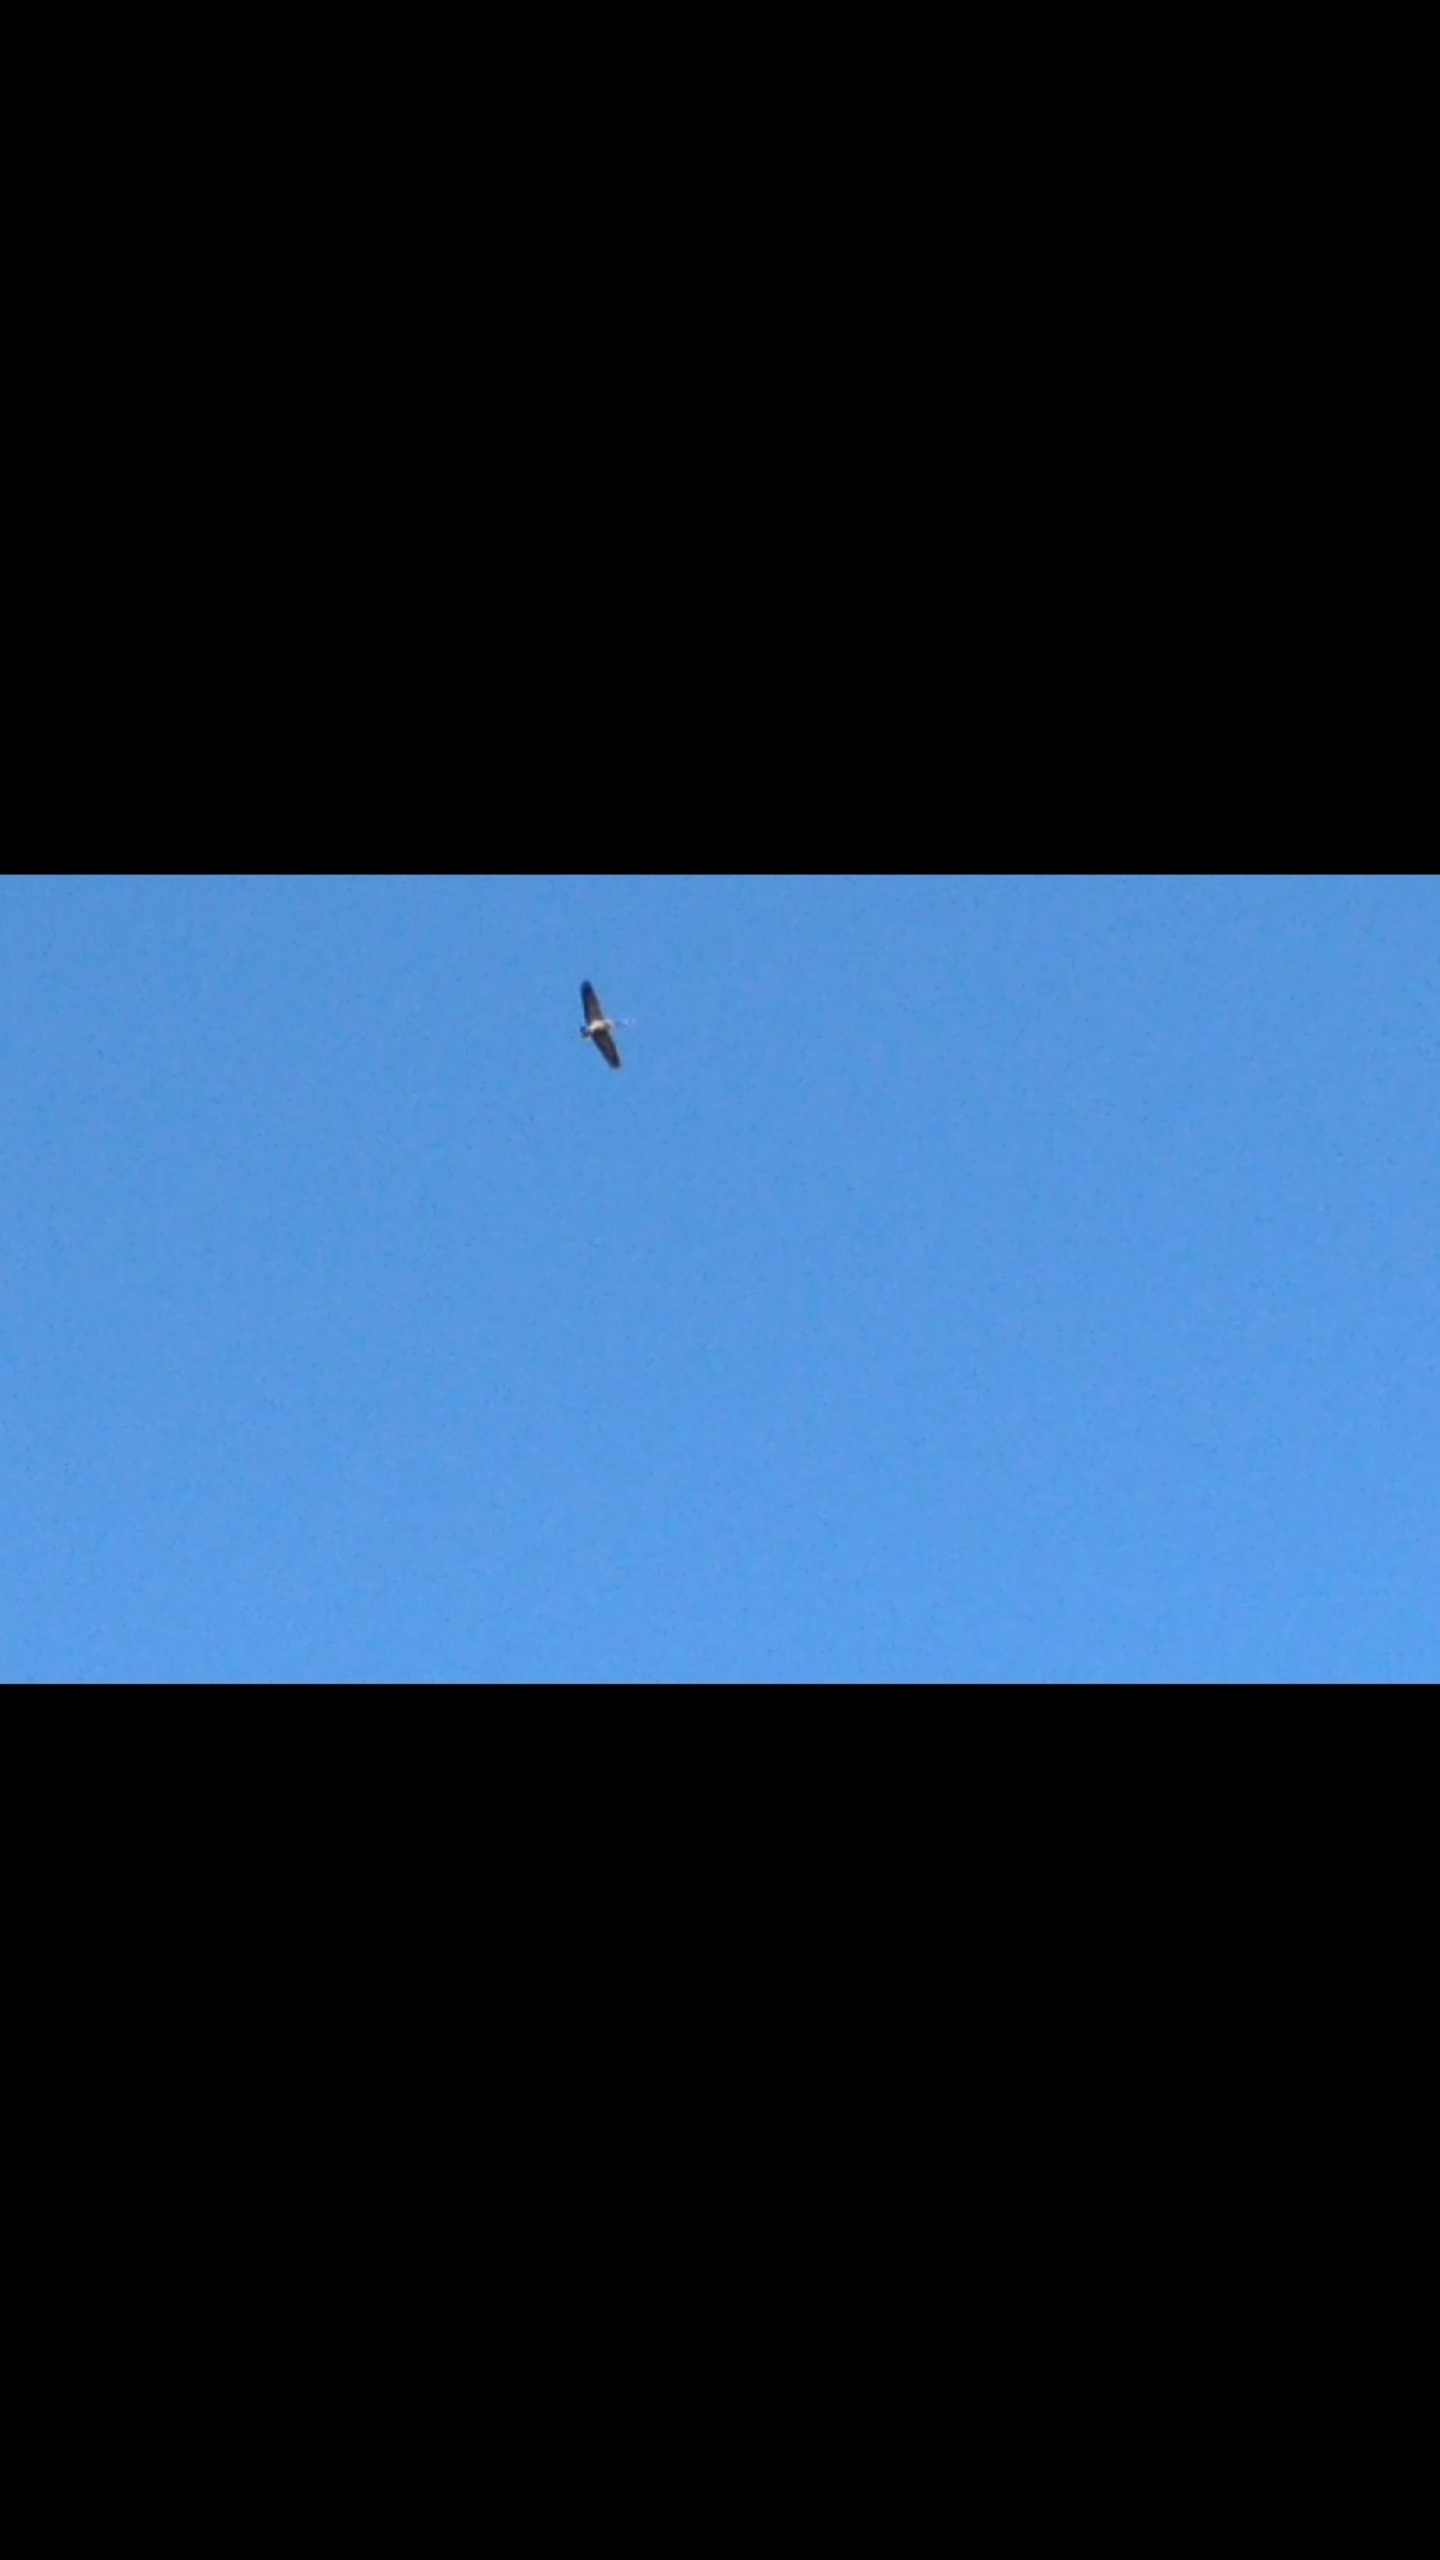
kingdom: Animalia
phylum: Chordata
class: Aves
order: Gruiformes
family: Gruidae
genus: Grus
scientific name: Grus grus
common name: Trane
